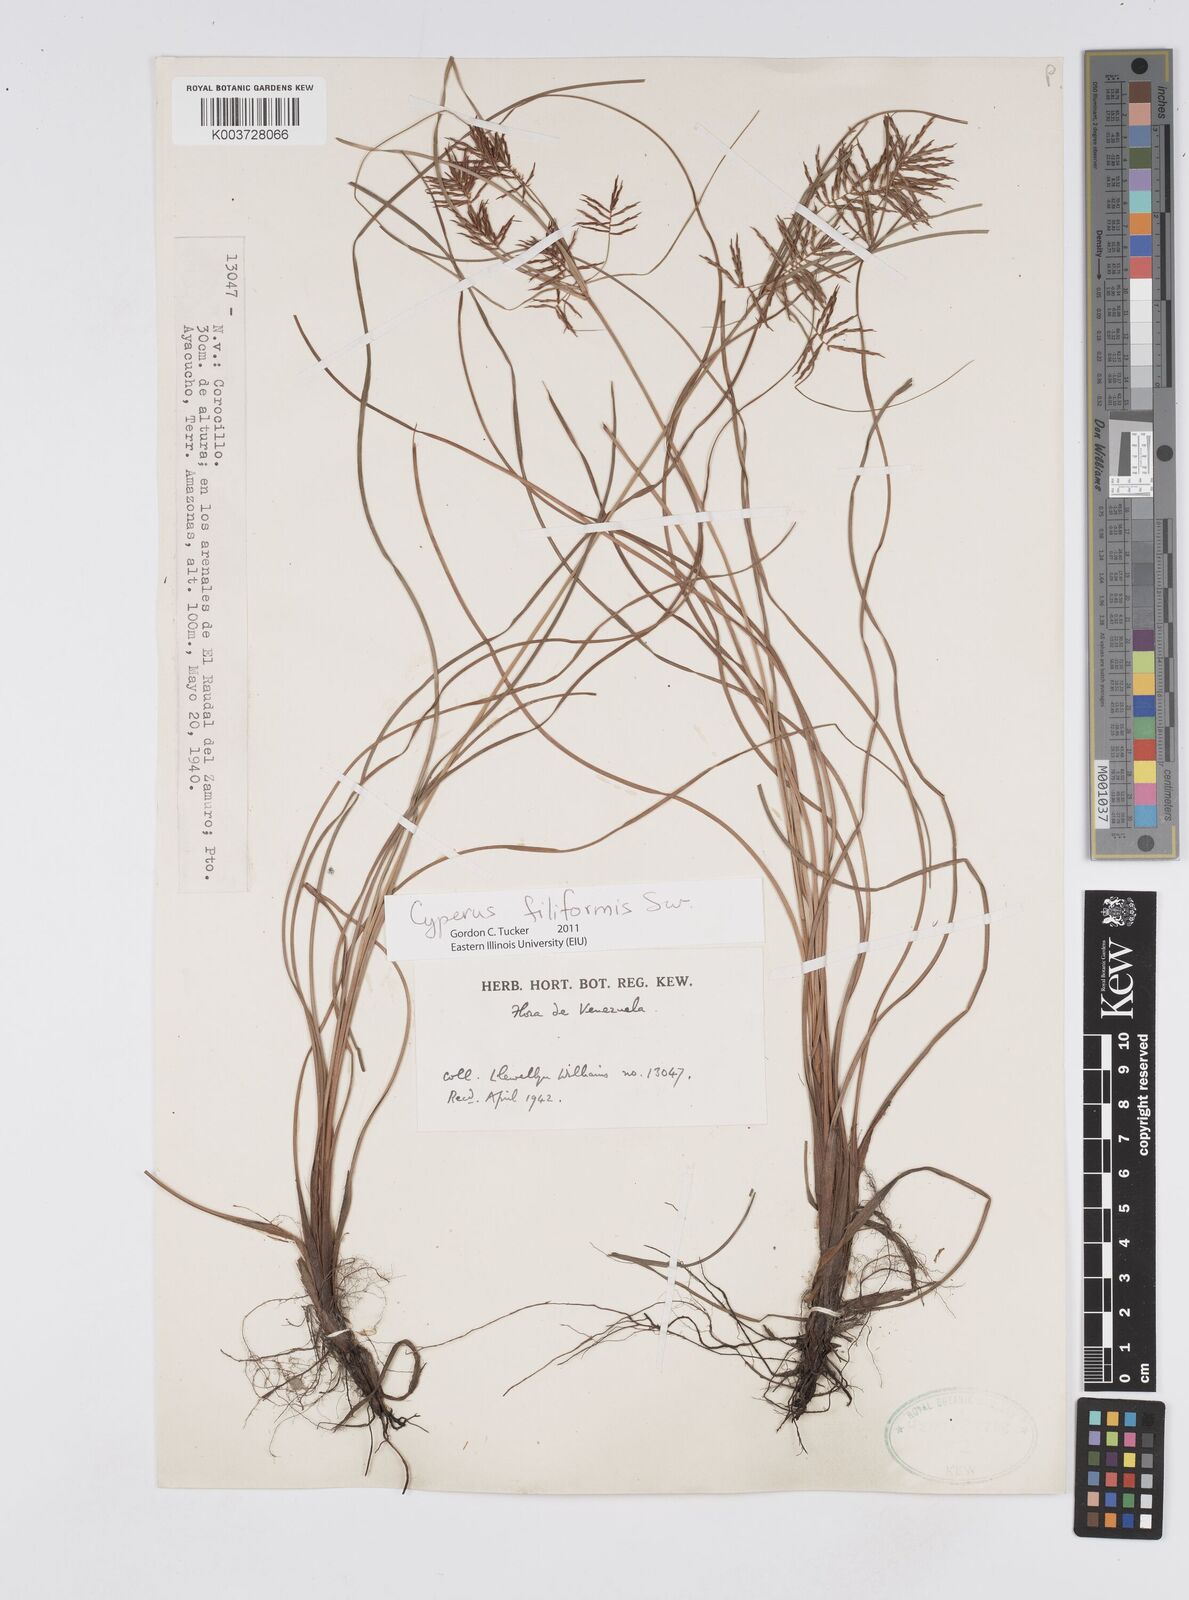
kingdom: Plantae
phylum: Tracheophyta
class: Liliopsida
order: Poales
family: Cyperaceae
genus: Cyperus
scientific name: Cyperus filiformis
